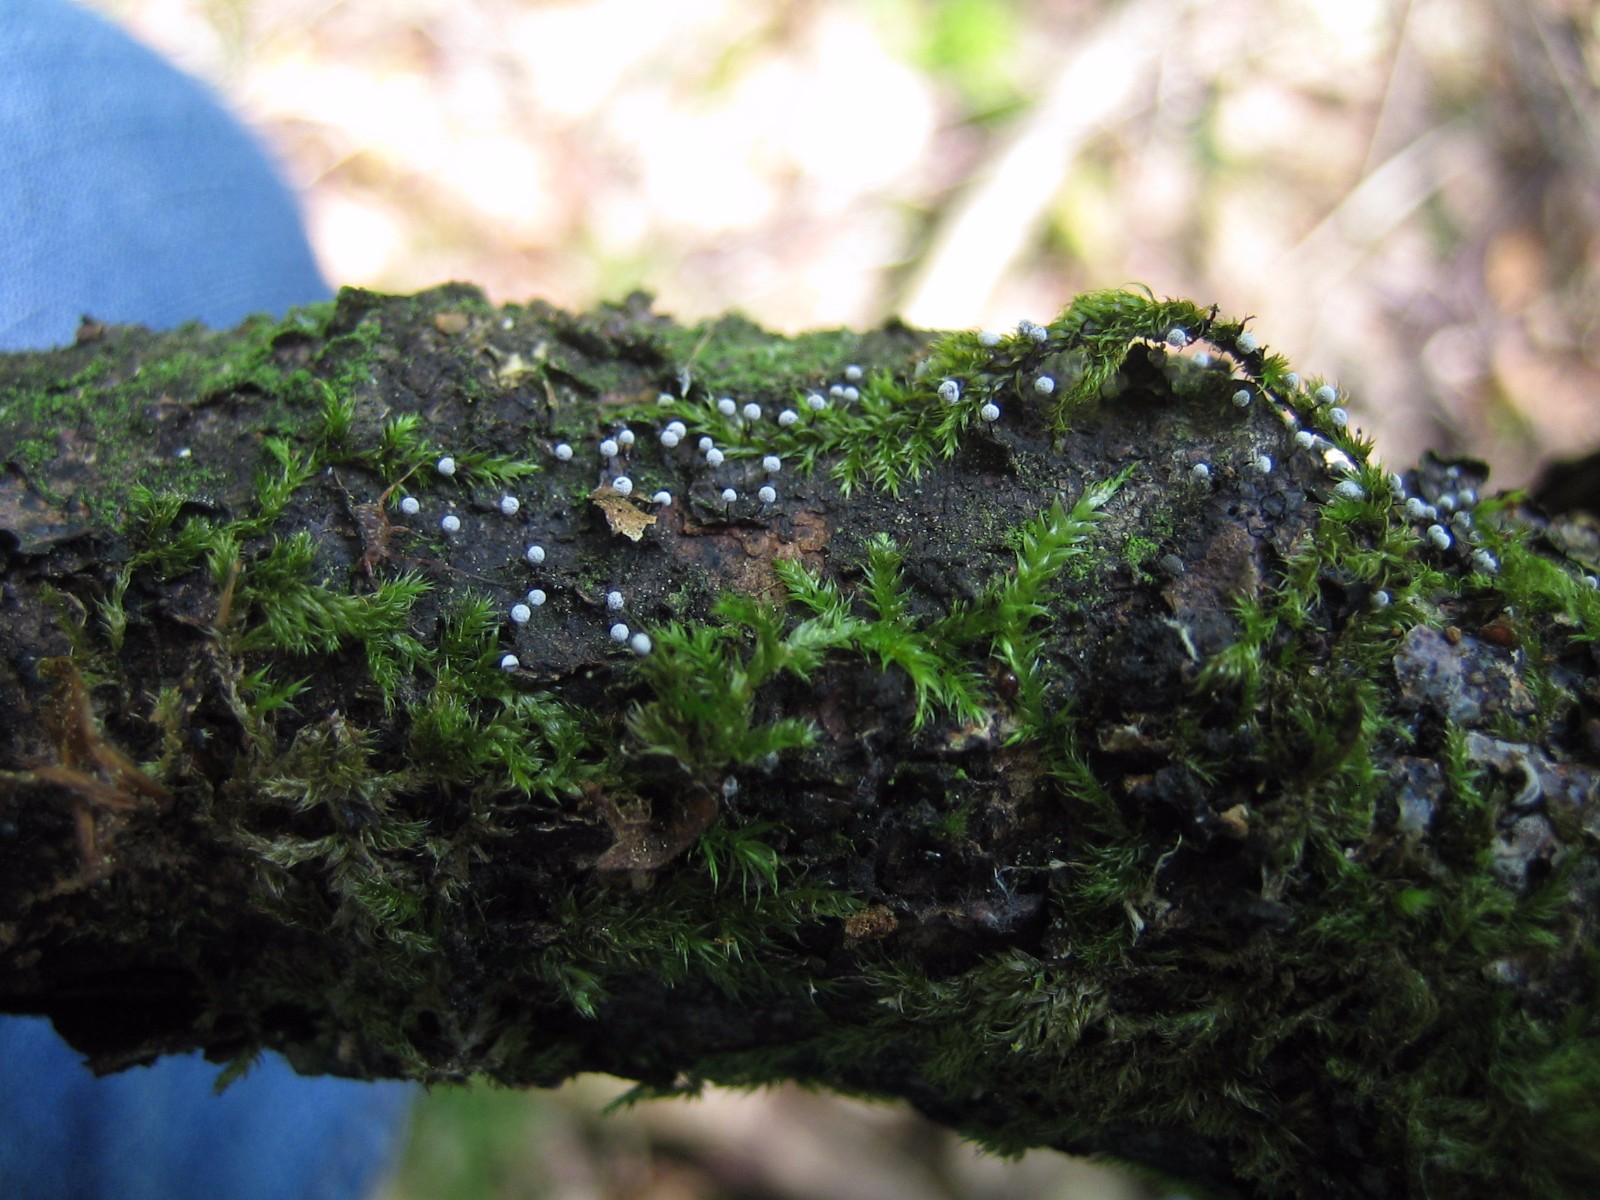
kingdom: Protozoa
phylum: Mycetozoa
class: Myxomycetes
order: Physarales
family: Physaraceae
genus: Physarum
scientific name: Physarum
